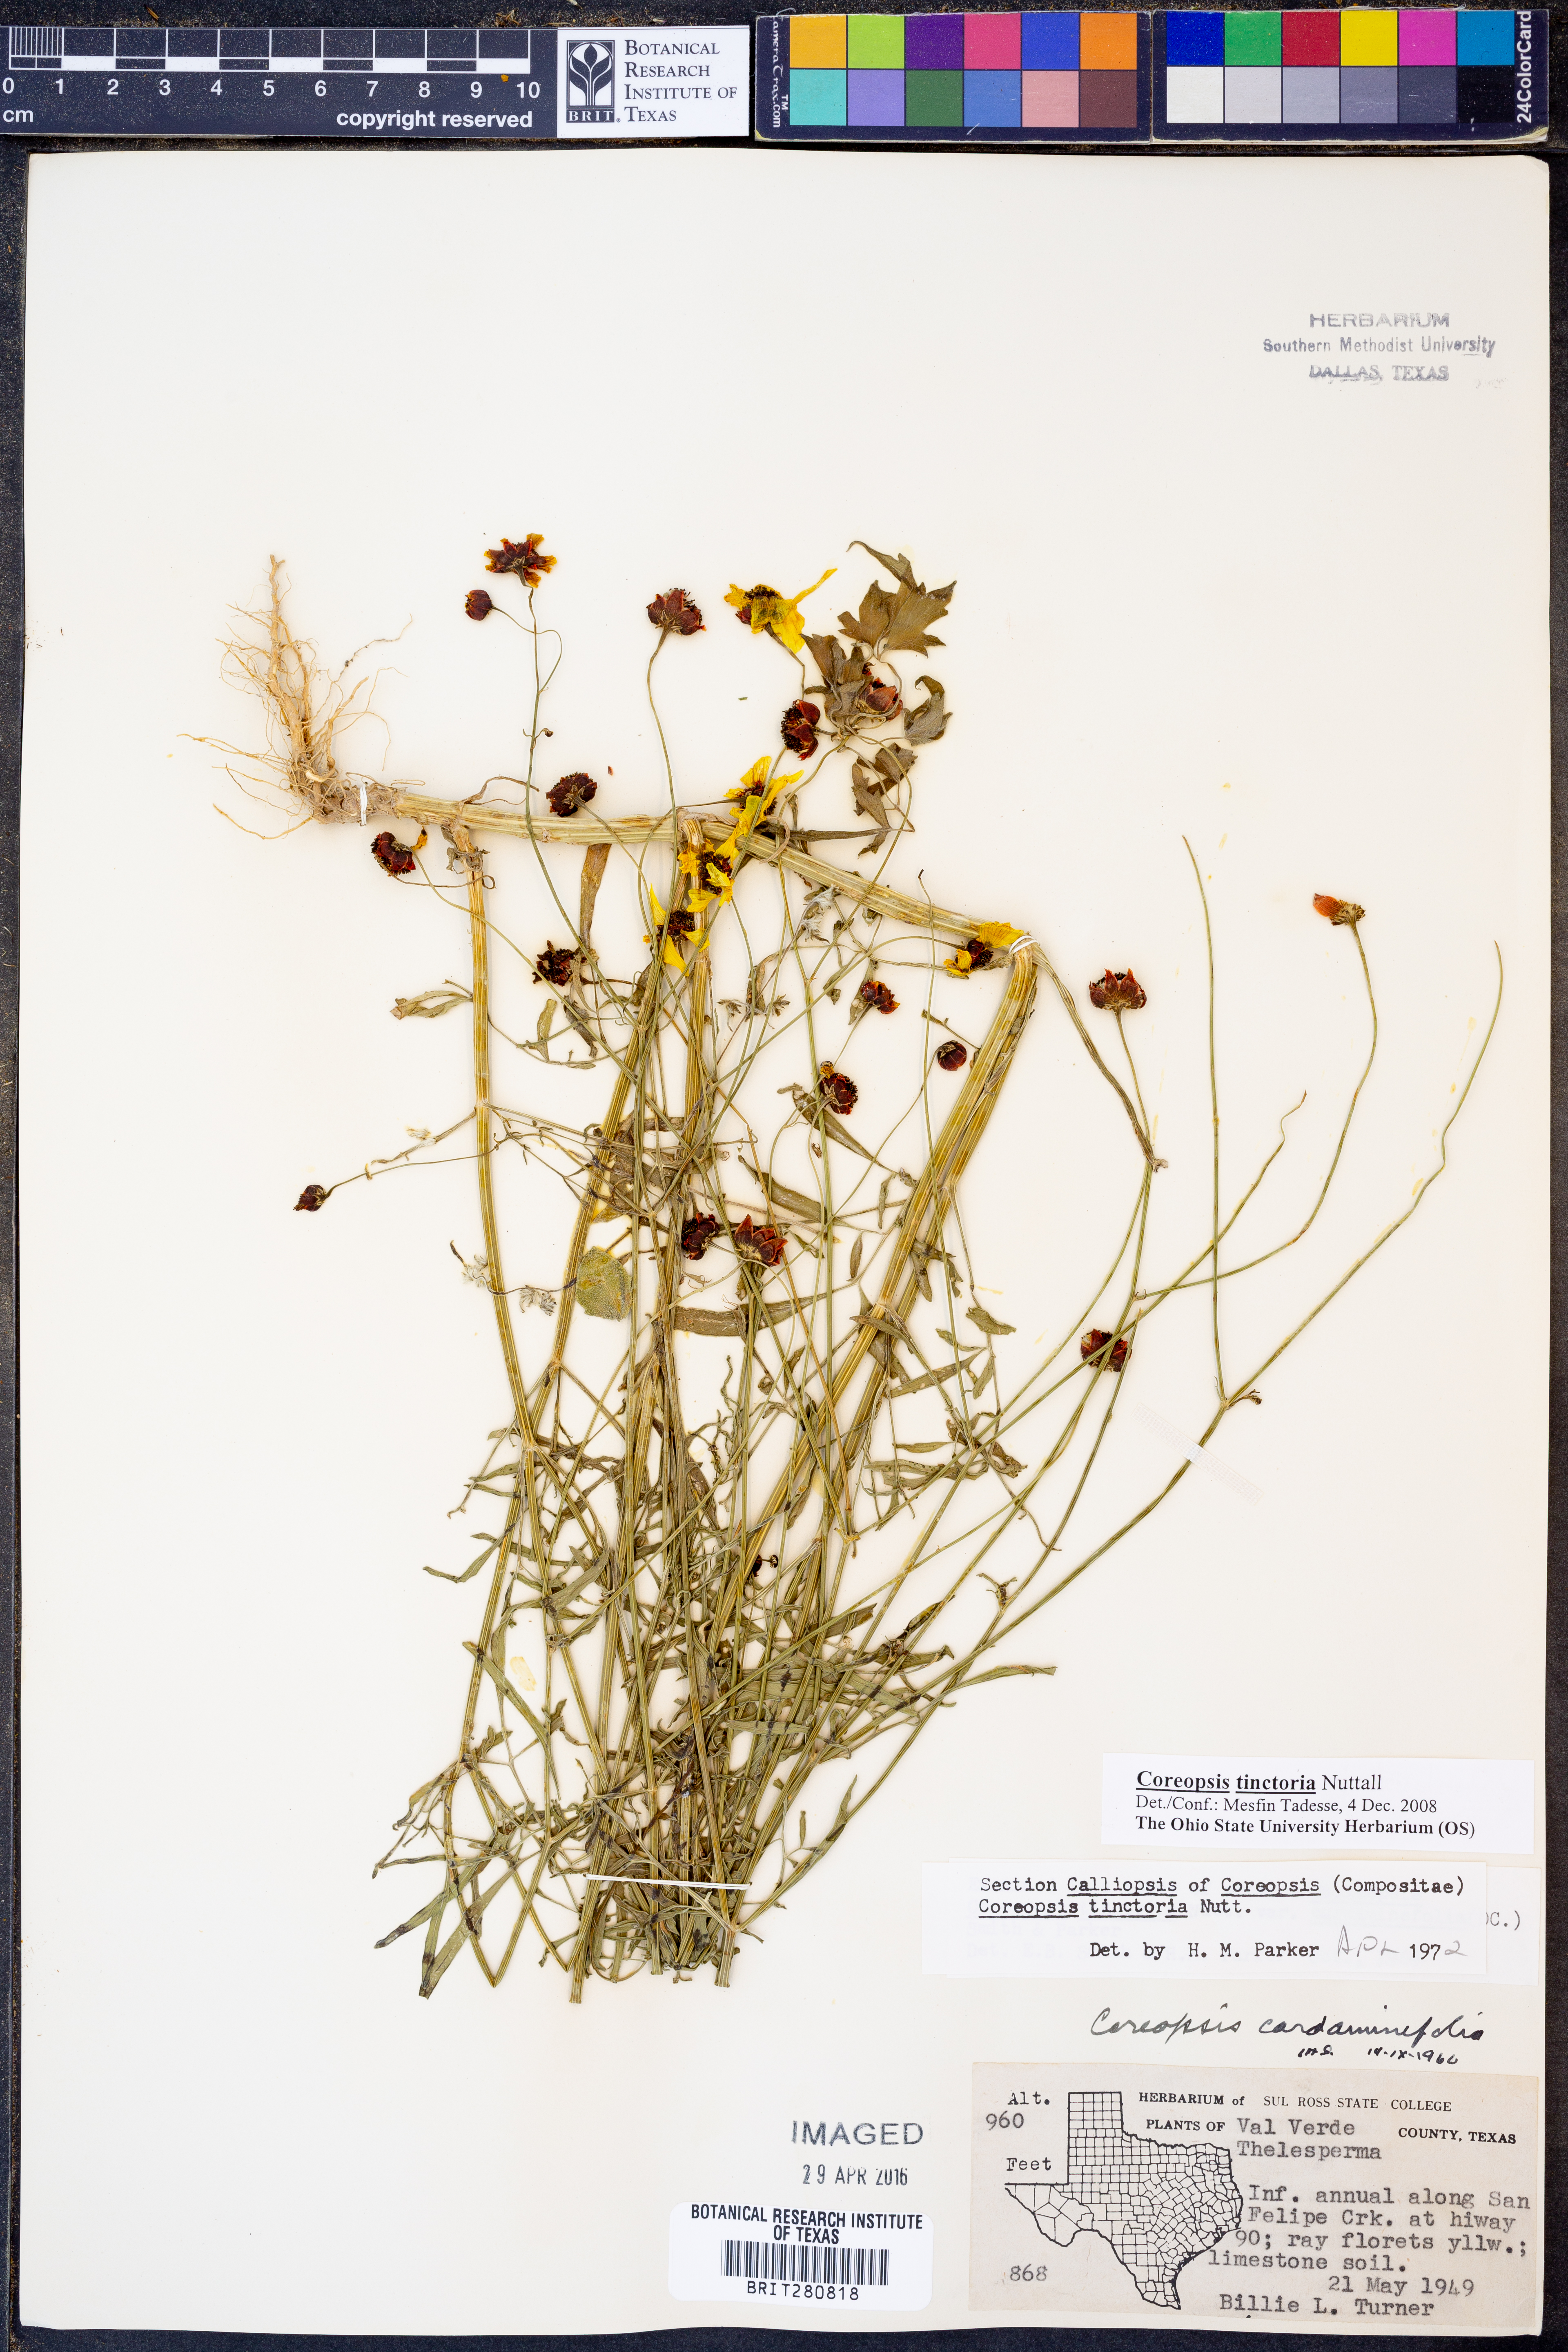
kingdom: Plantae
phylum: Tracheophyta
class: Magnoliopsida
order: Asterales
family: Asteraceae
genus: Coreopsis
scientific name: Coreopsis tinctoria
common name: Garden tickseed
